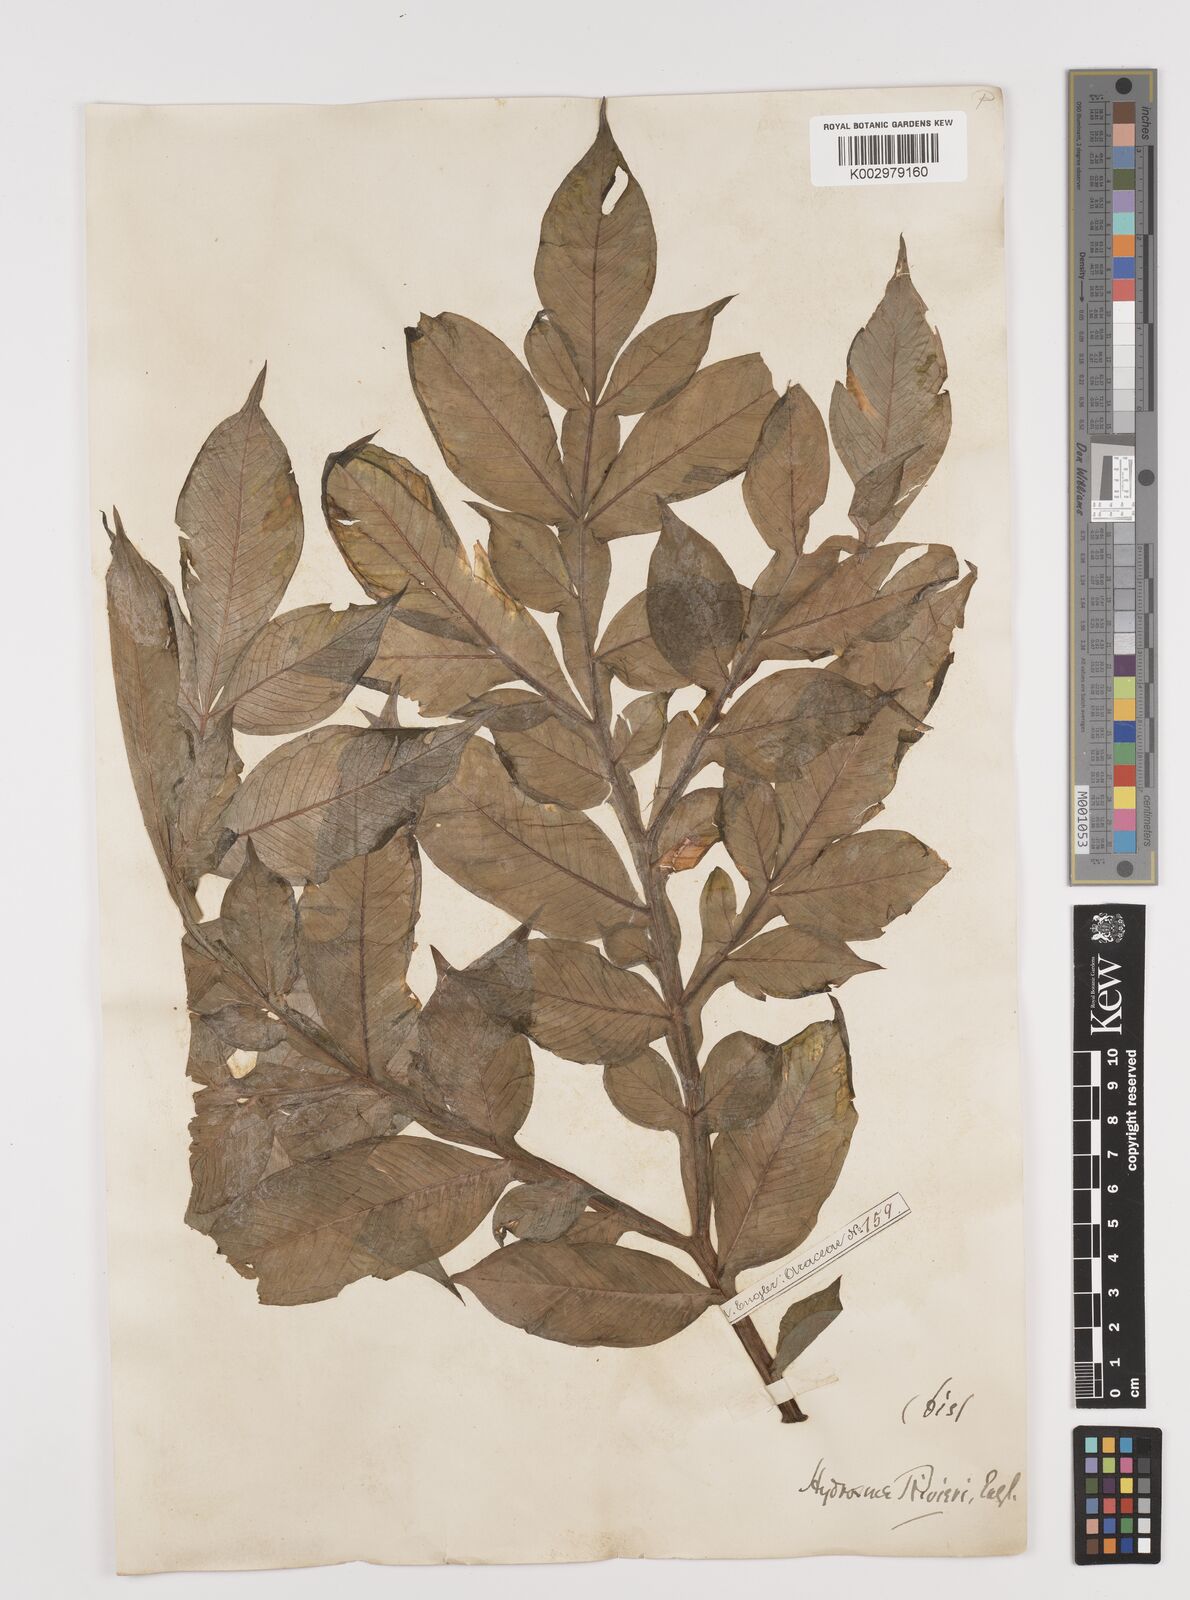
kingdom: Plantae
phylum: Tracheophyta
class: Liliopsida
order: Alismatales
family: Araceae
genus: Amorphophallus
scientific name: Amorphophallus konjac
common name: Umbrella arum
